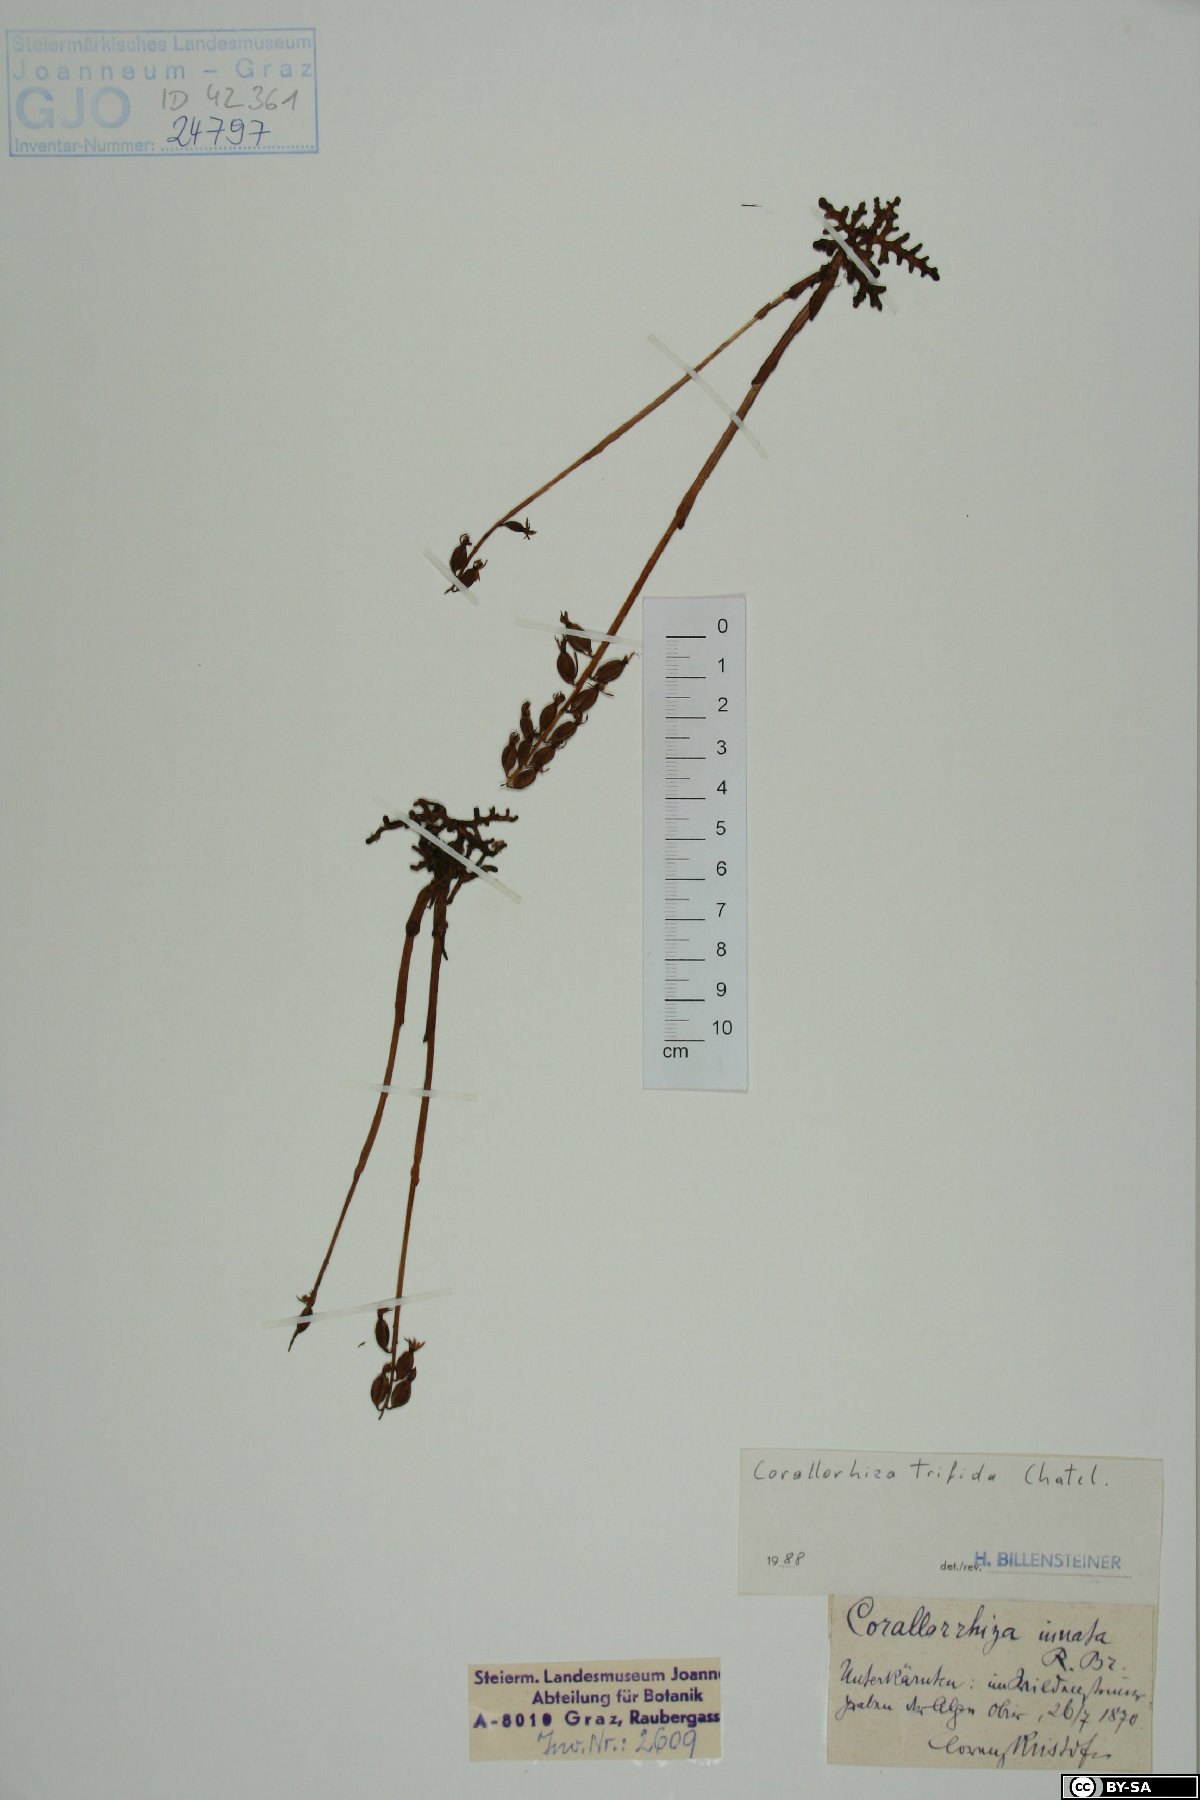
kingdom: Plantae
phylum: Tracheophyta
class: Liliopsida
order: Asparagales
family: Orchidaceae
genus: Corallorhiza
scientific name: Corallorhiza trifida
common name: Yellow coralroot
